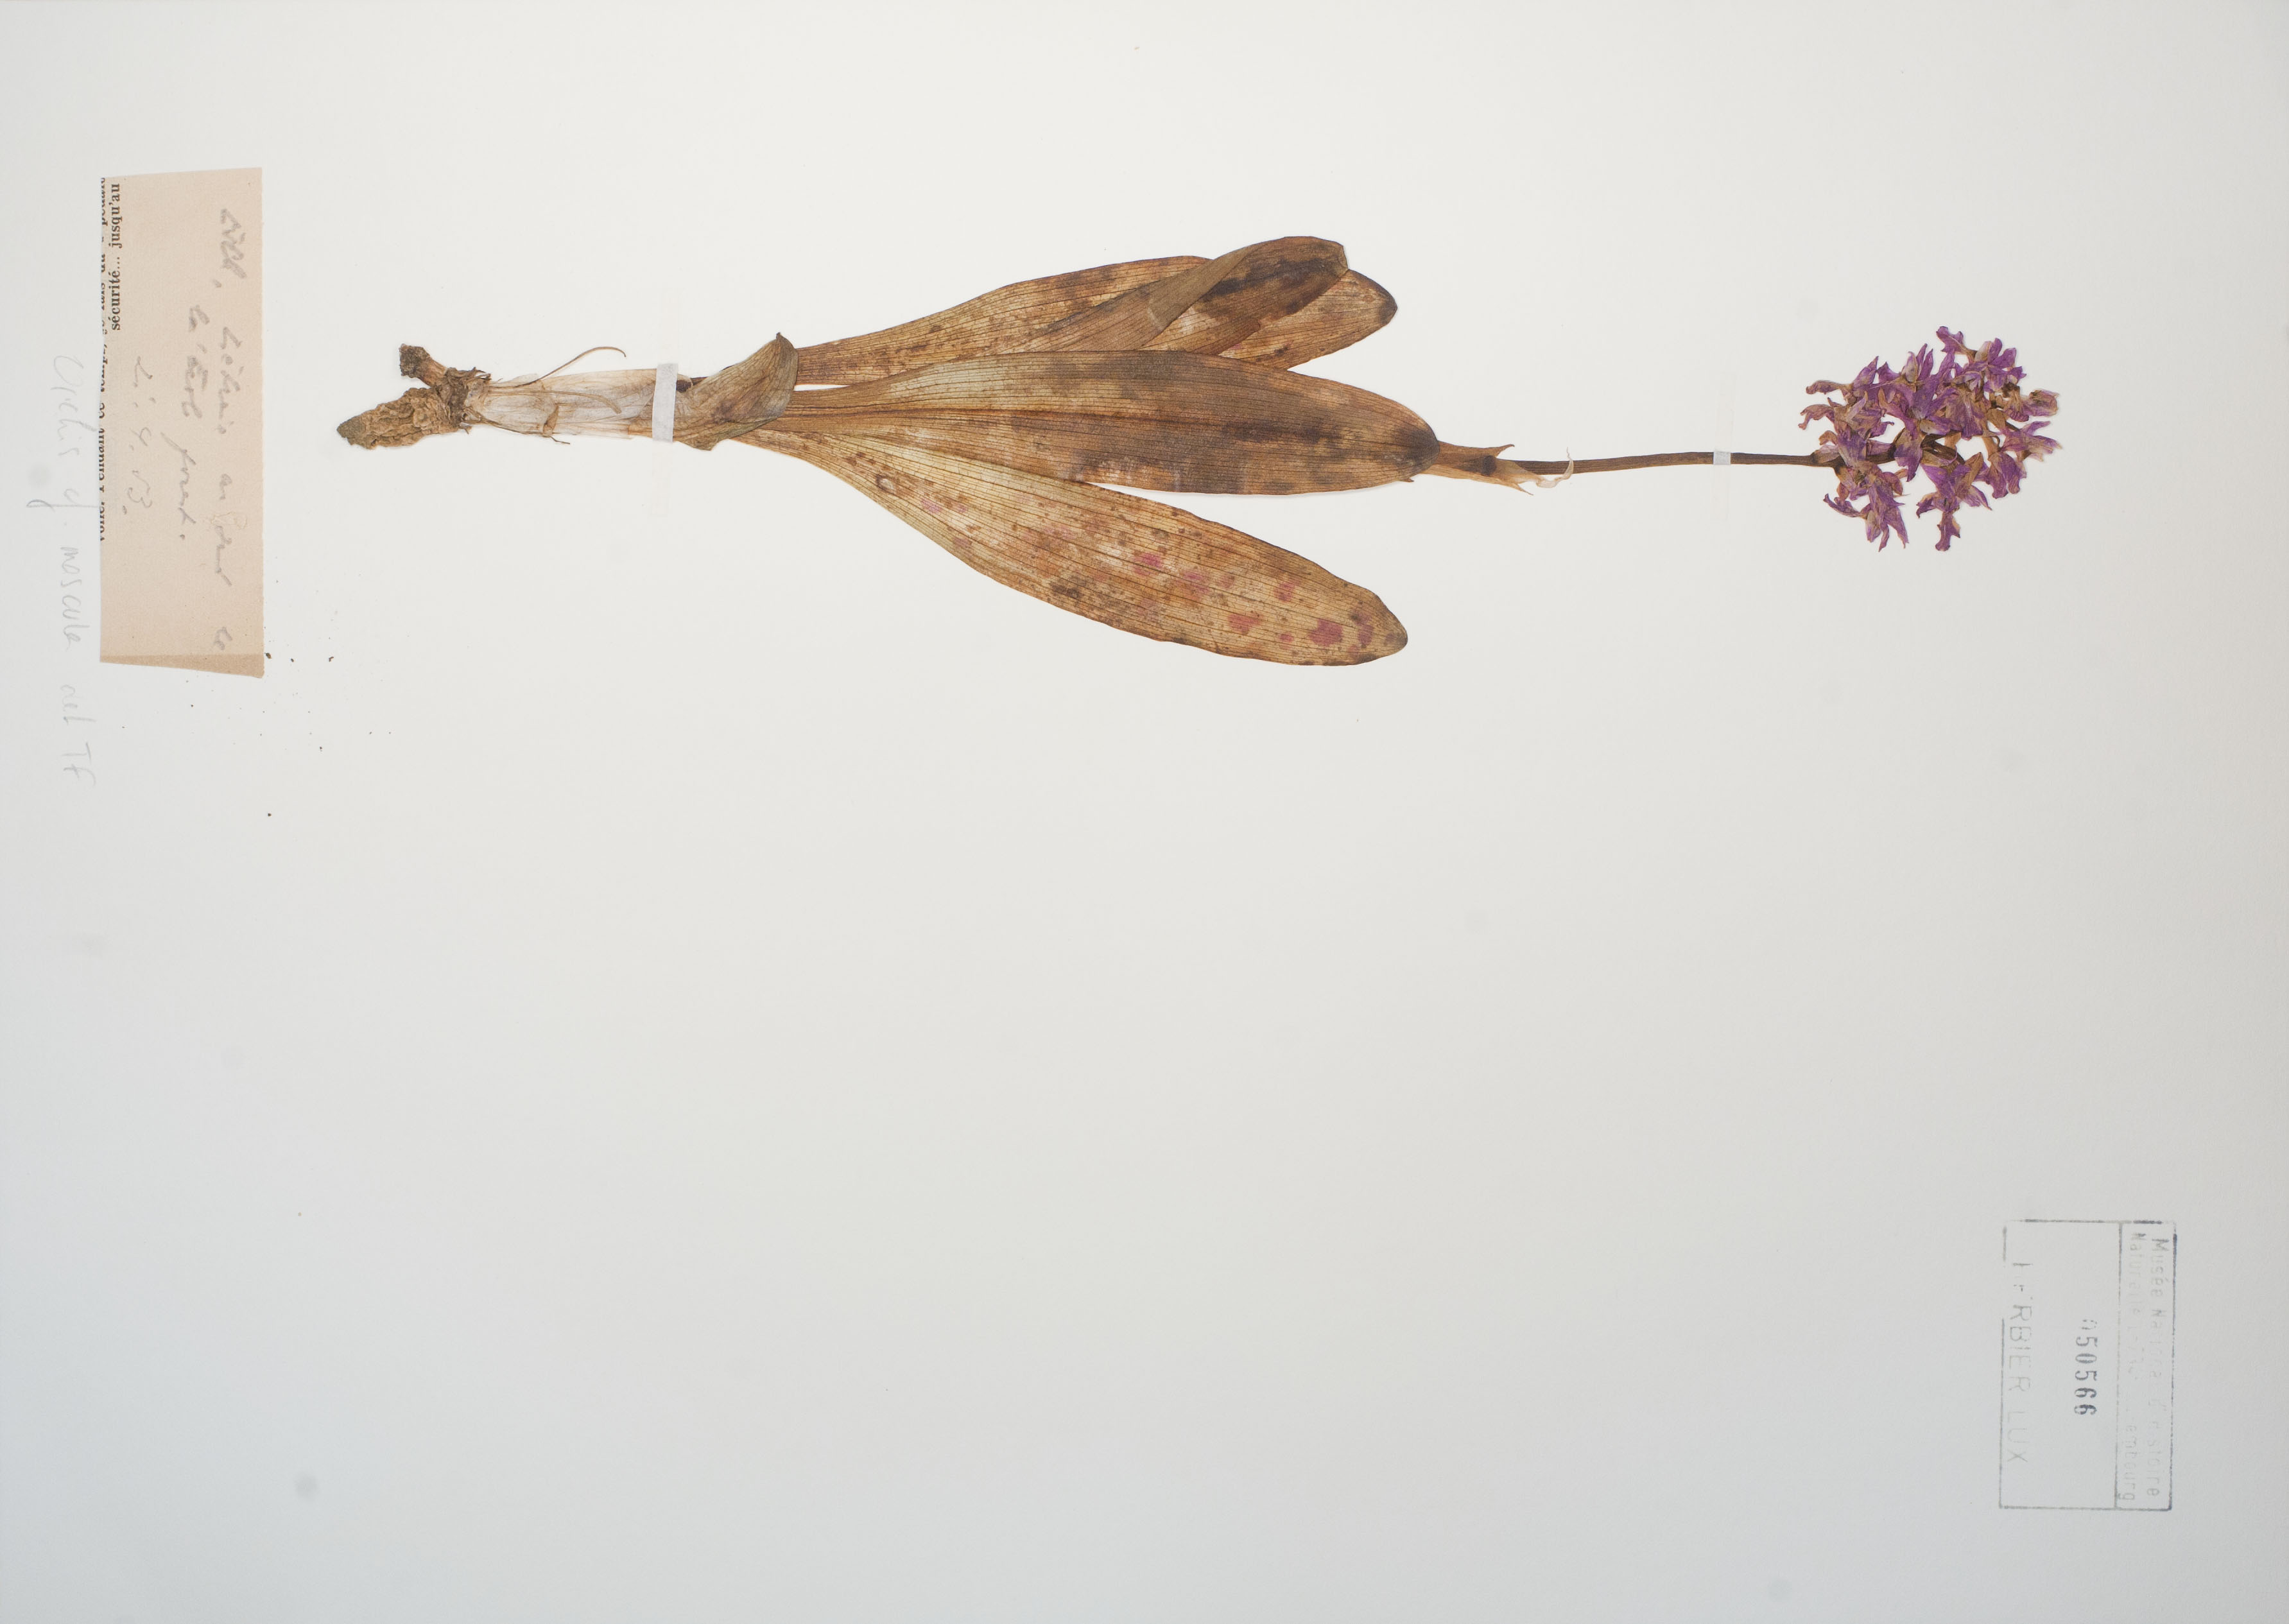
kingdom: Plantae
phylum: Tracheophyta
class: Liliopsida
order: Asparagales
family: Orchidaceae
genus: Orchis
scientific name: Orchis mascula
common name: Early-purple orchid
